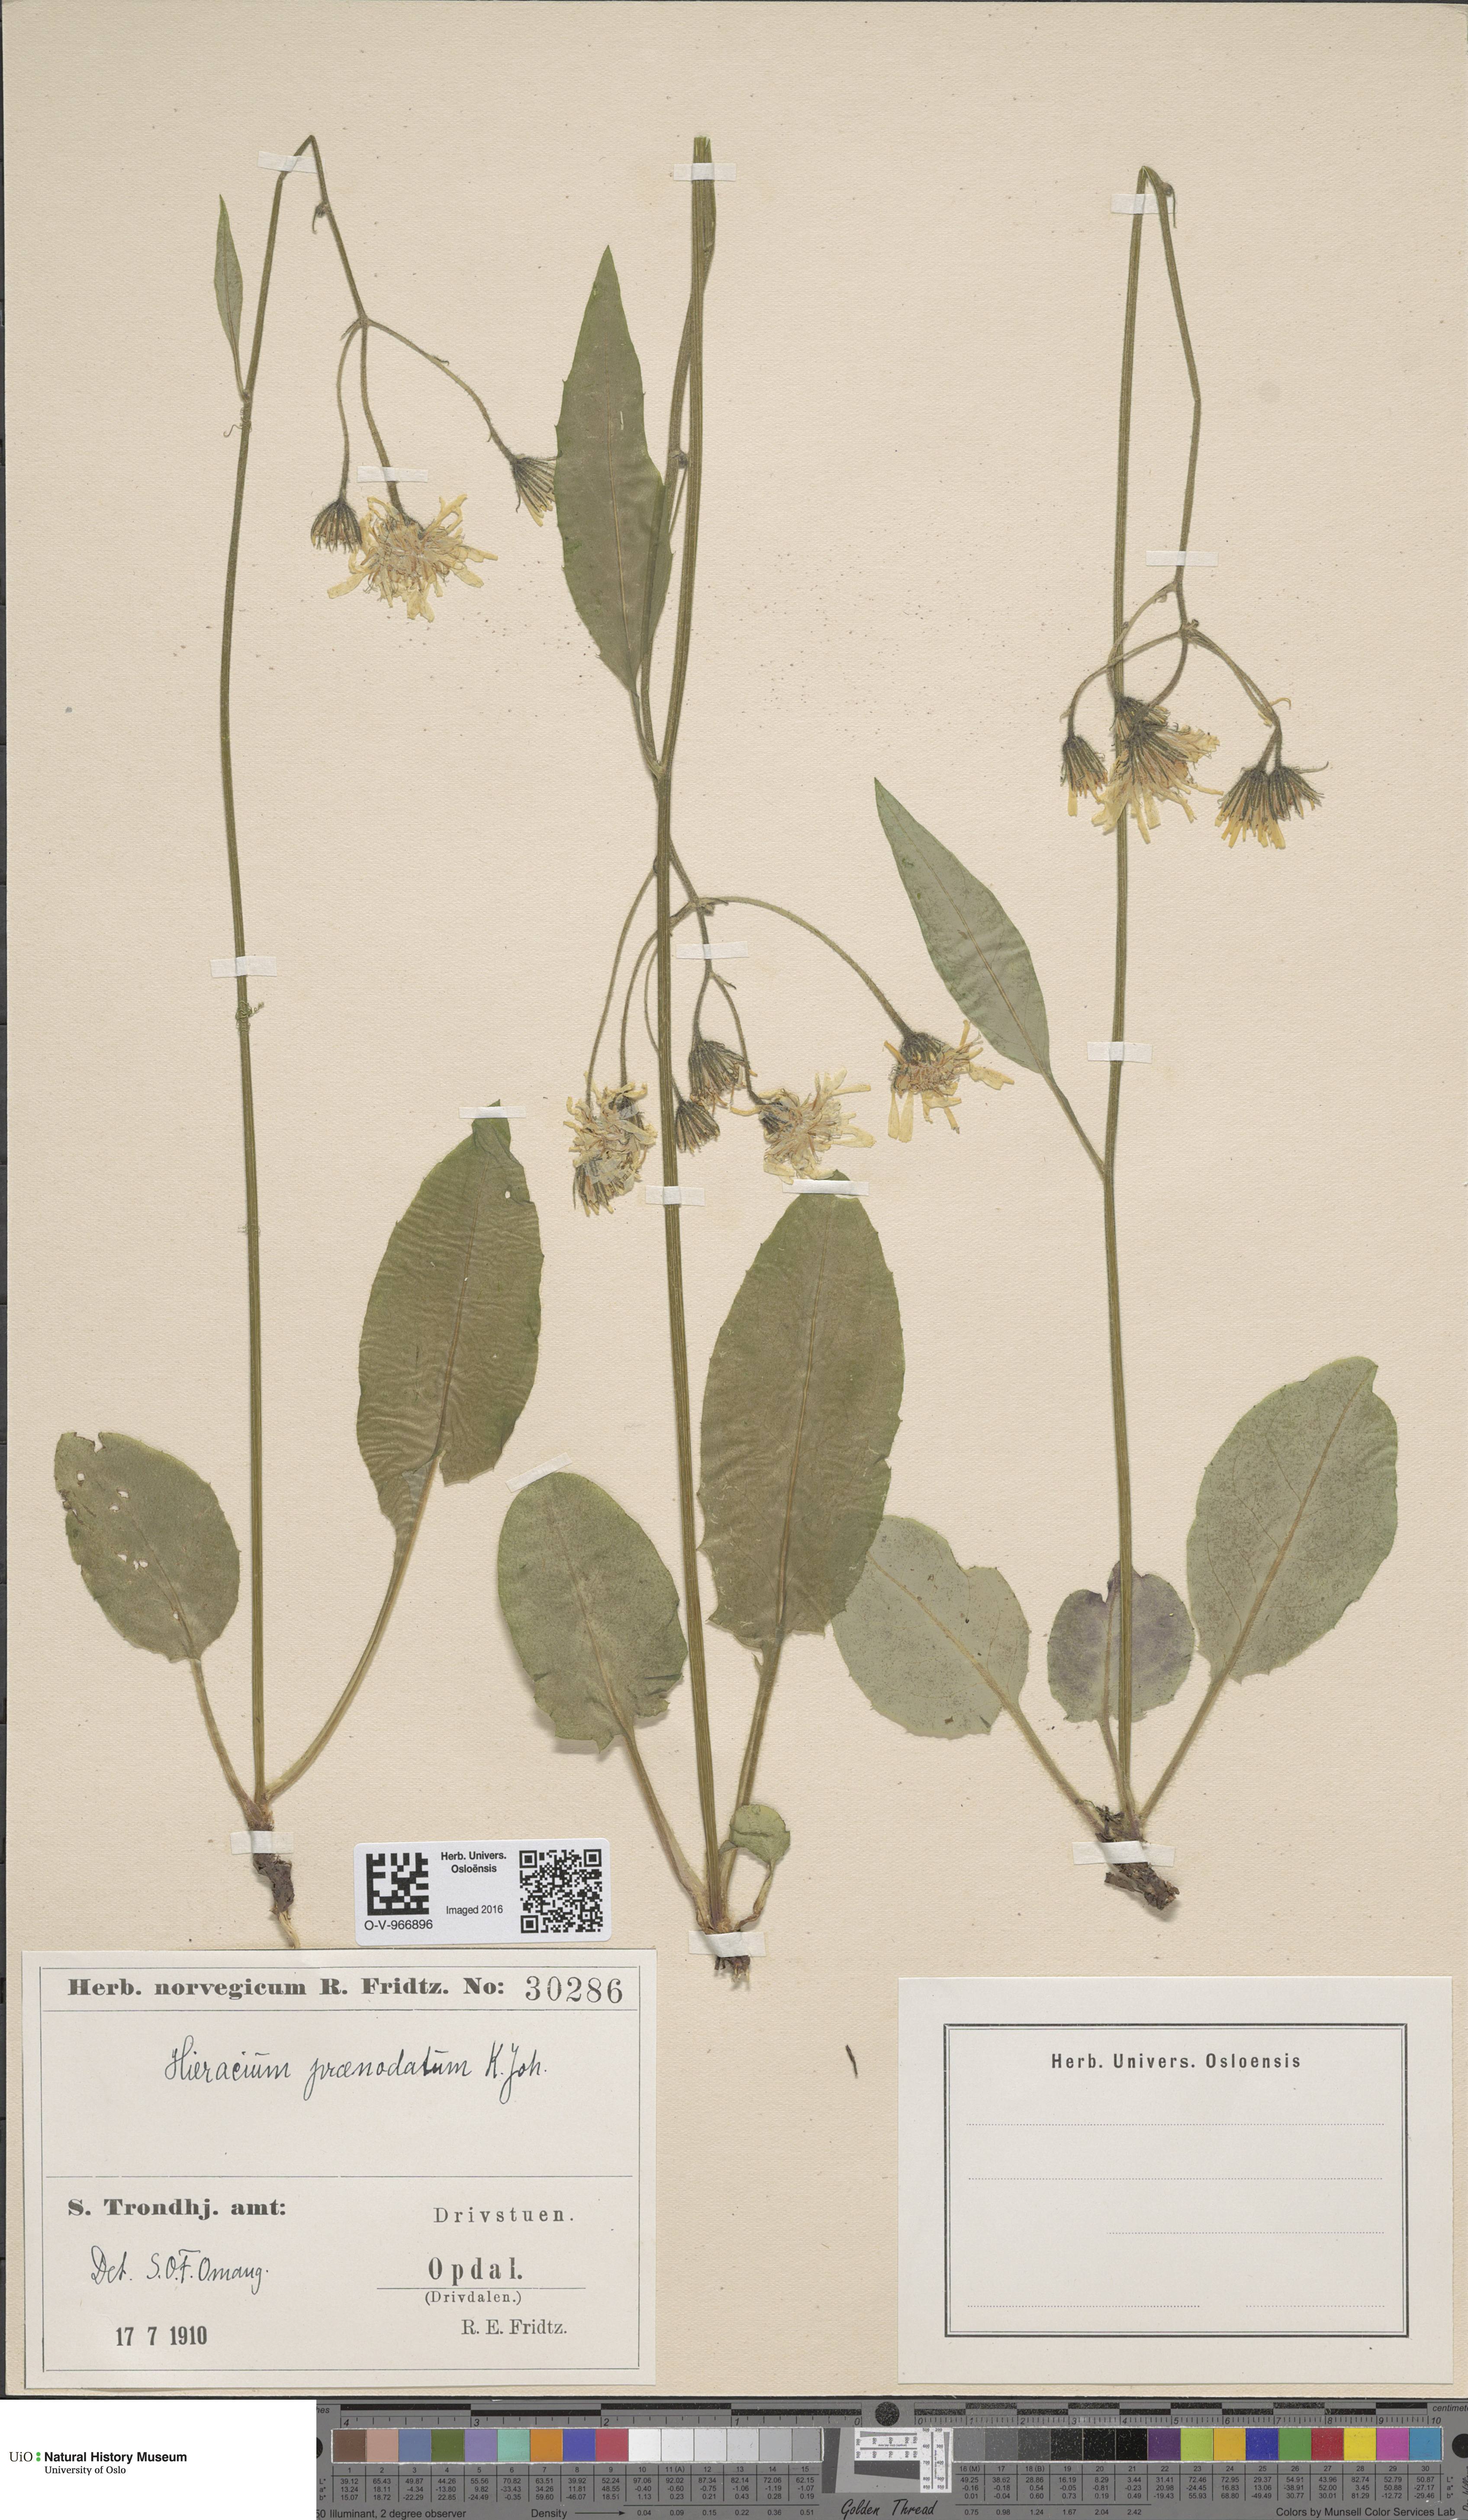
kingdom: Plantae
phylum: Tracheophyta
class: Magnoliopsida
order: Asterales
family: Asteraceae
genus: Hieracium
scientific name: Hieracium praenodatum
